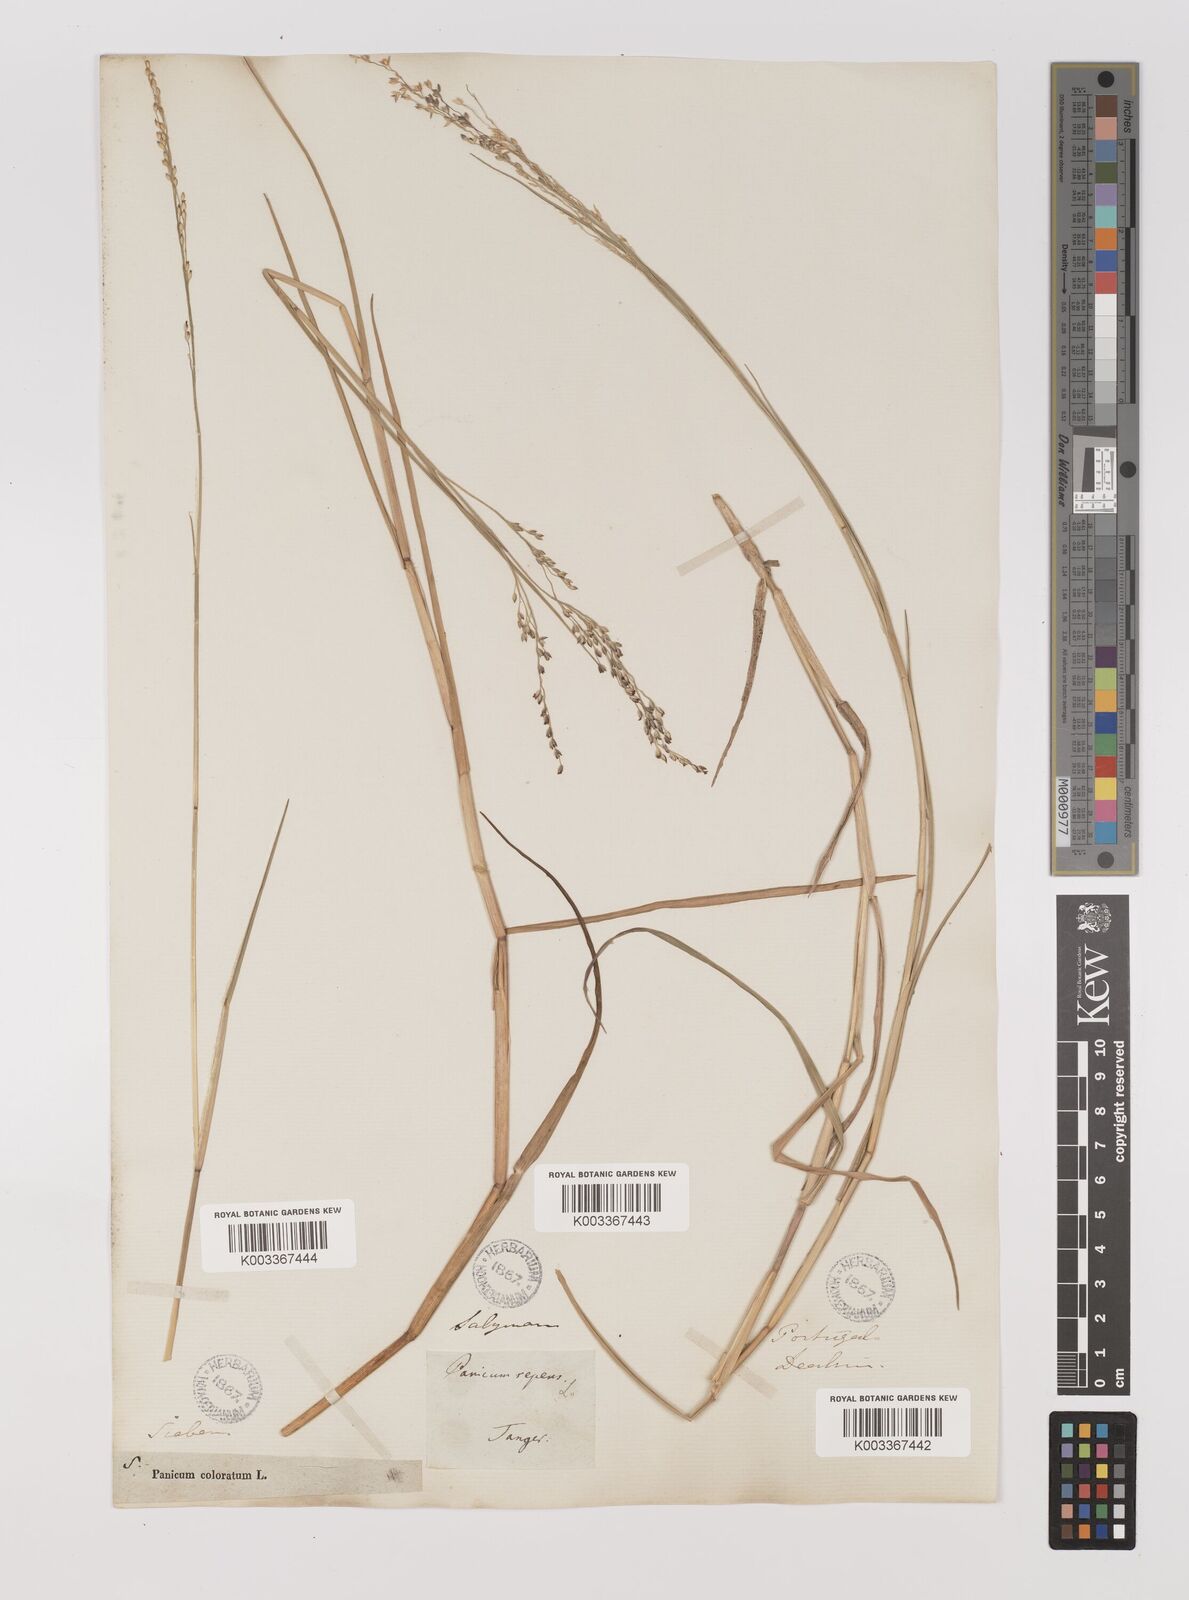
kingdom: Plantae
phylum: Tracheophyta
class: Liliopsida
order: Poales
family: Poaceae
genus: Panicum
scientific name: Panicum repens
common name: Torpedo grass
